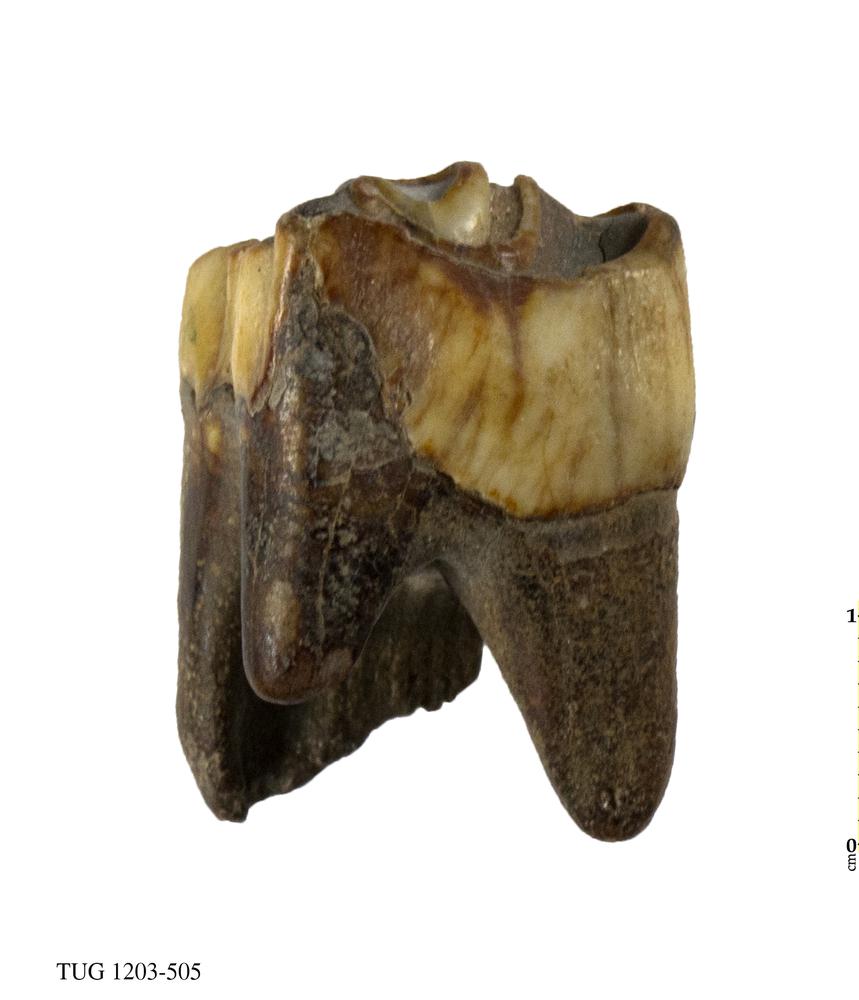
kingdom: Animalia
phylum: Chordata
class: Mammalia
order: Artiodactyla
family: Bovidae
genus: Bos
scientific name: Bos
